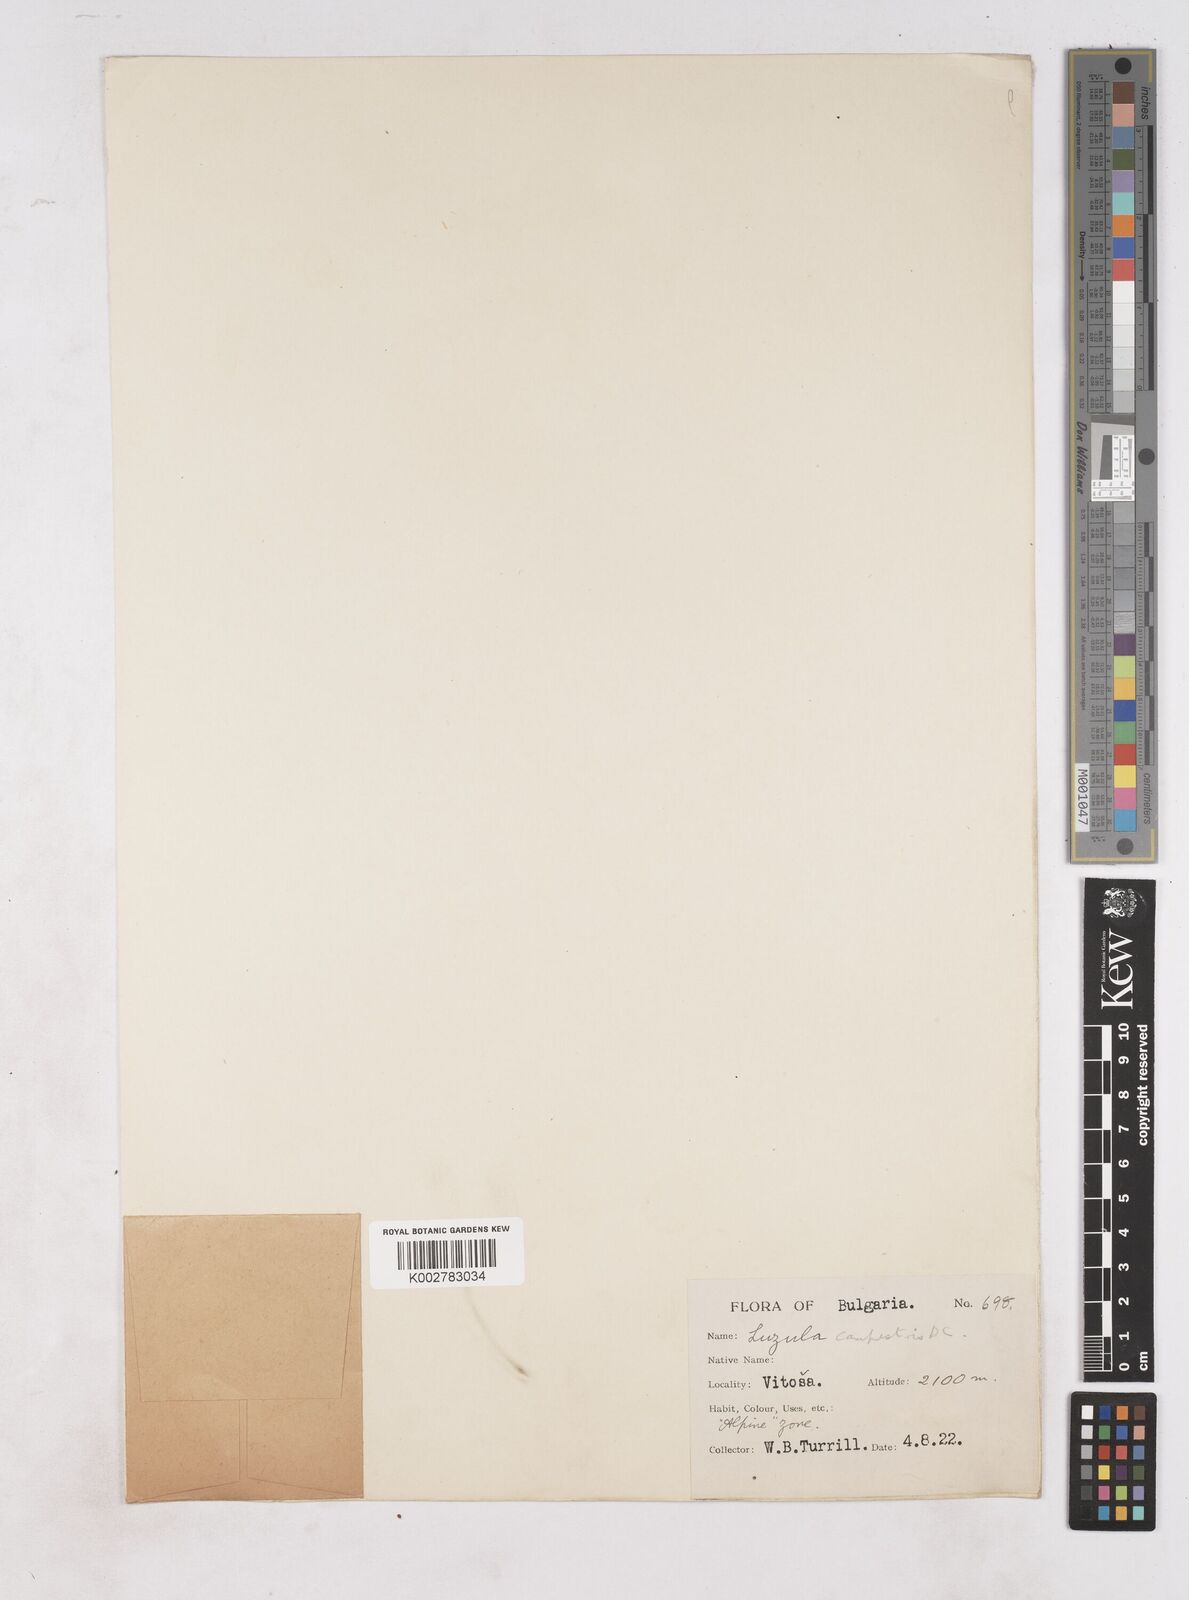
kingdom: Plantae
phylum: Tracheophyta
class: Liliopsida
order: Poales
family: Juncaceae
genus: Luzula
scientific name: Luzula campestris
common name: Field wood-rush
